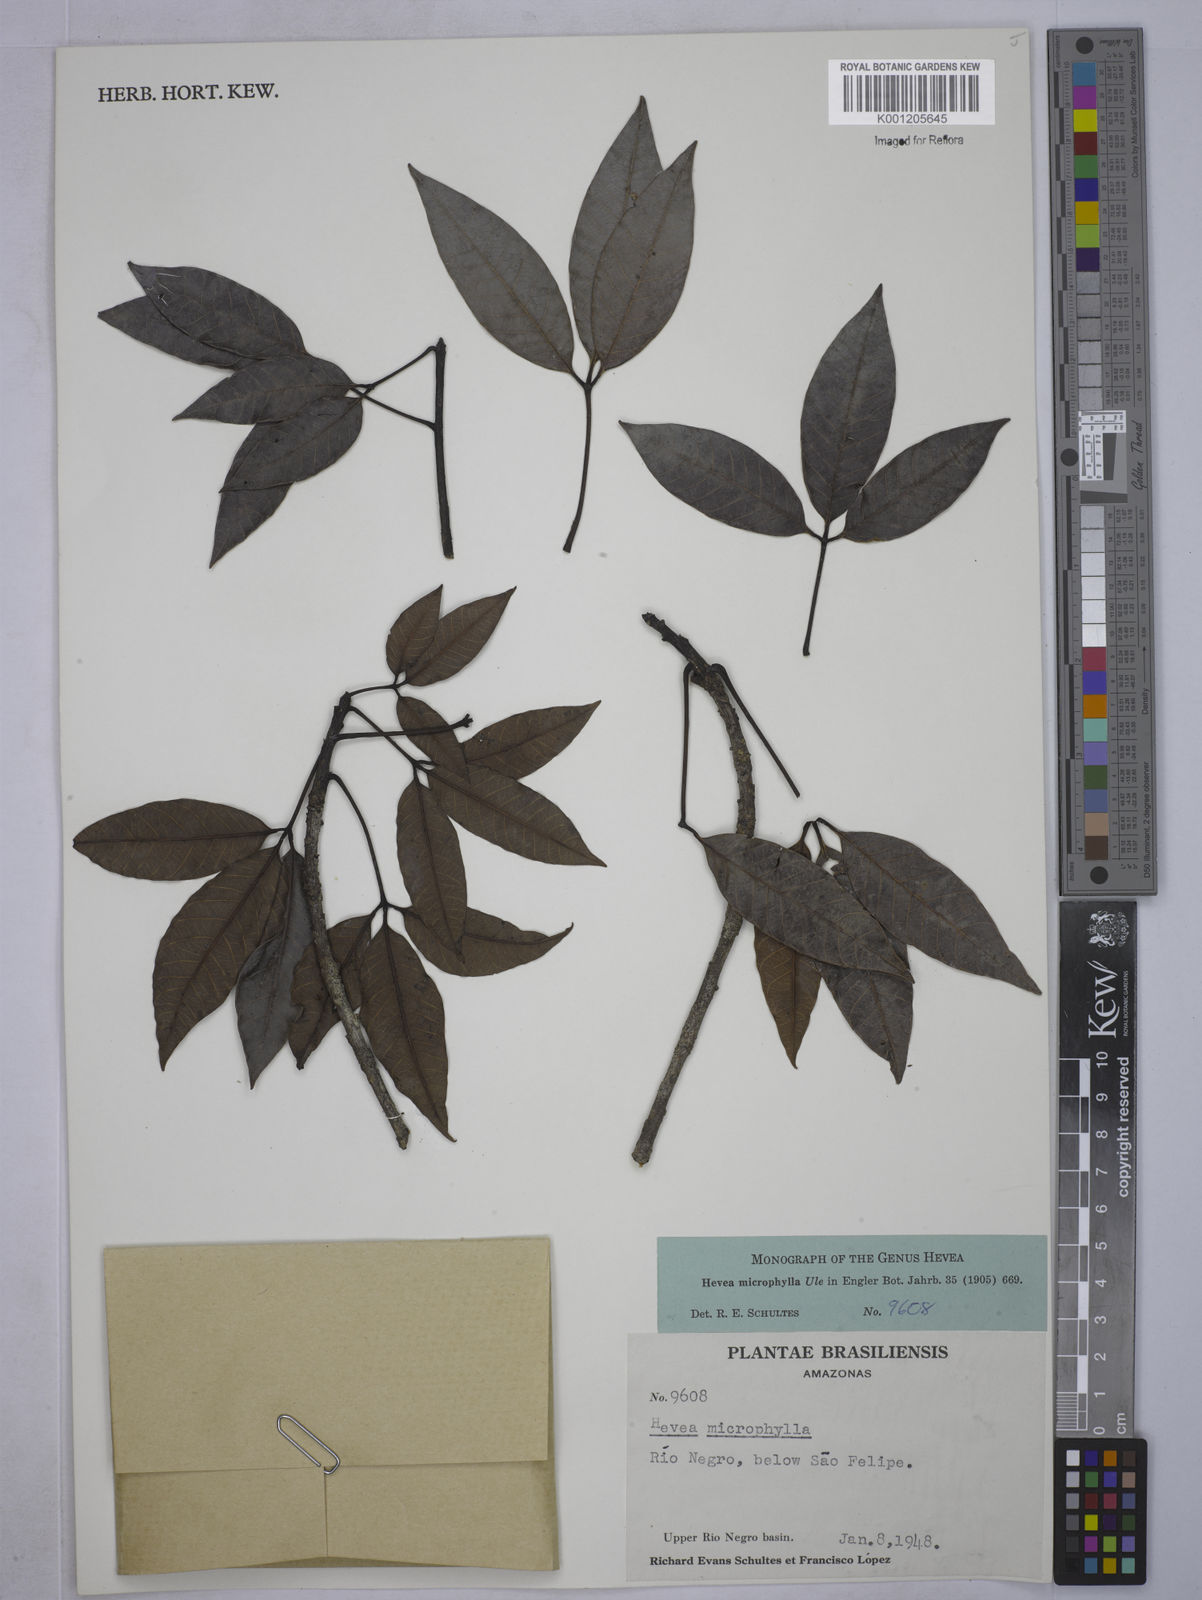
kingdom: Plantae
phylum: Tracheophyta
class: Magnoliopsida
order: Malpighiales
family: Euphorbiaceae
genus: Hevea
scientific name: Hevea microphylla
